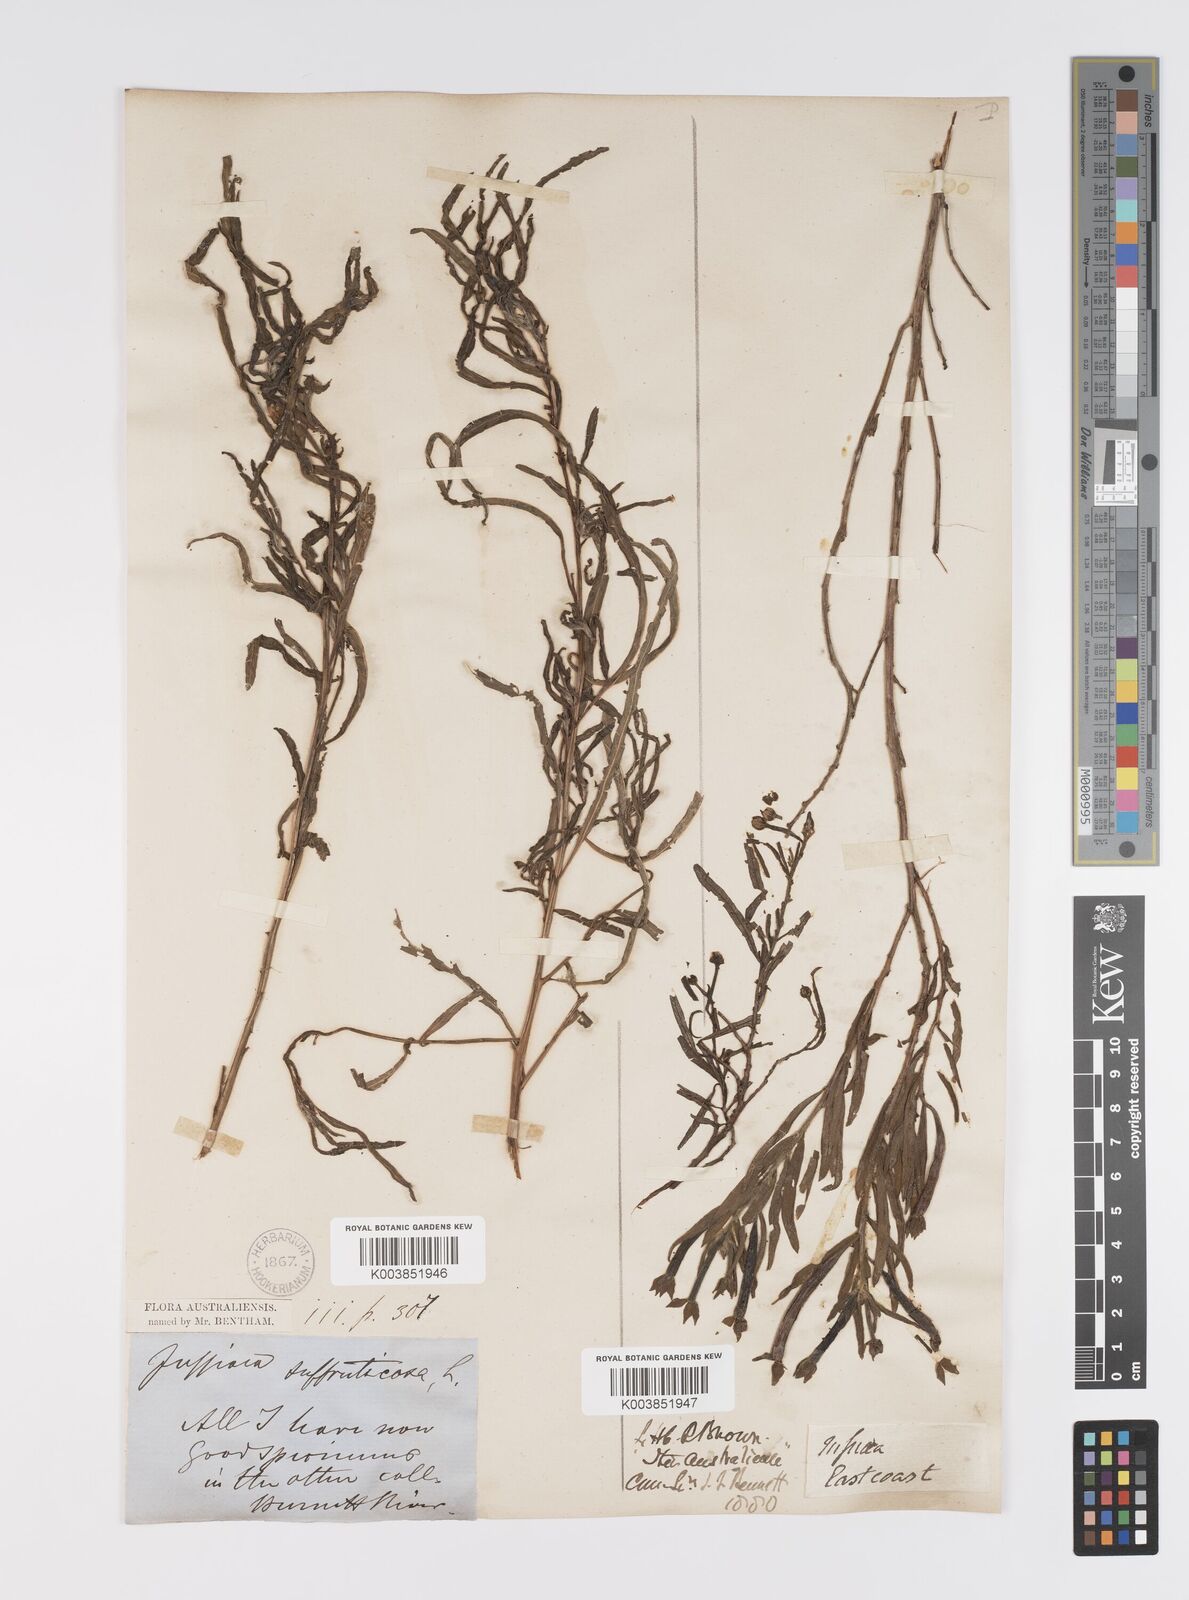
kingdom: Plantae
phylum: Tracheophyta
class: Magnoliopsida
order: Myrtales
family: Onagraceae
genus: Ludwigia
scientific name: Ludwigia octovalvis
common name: Water-primrose
